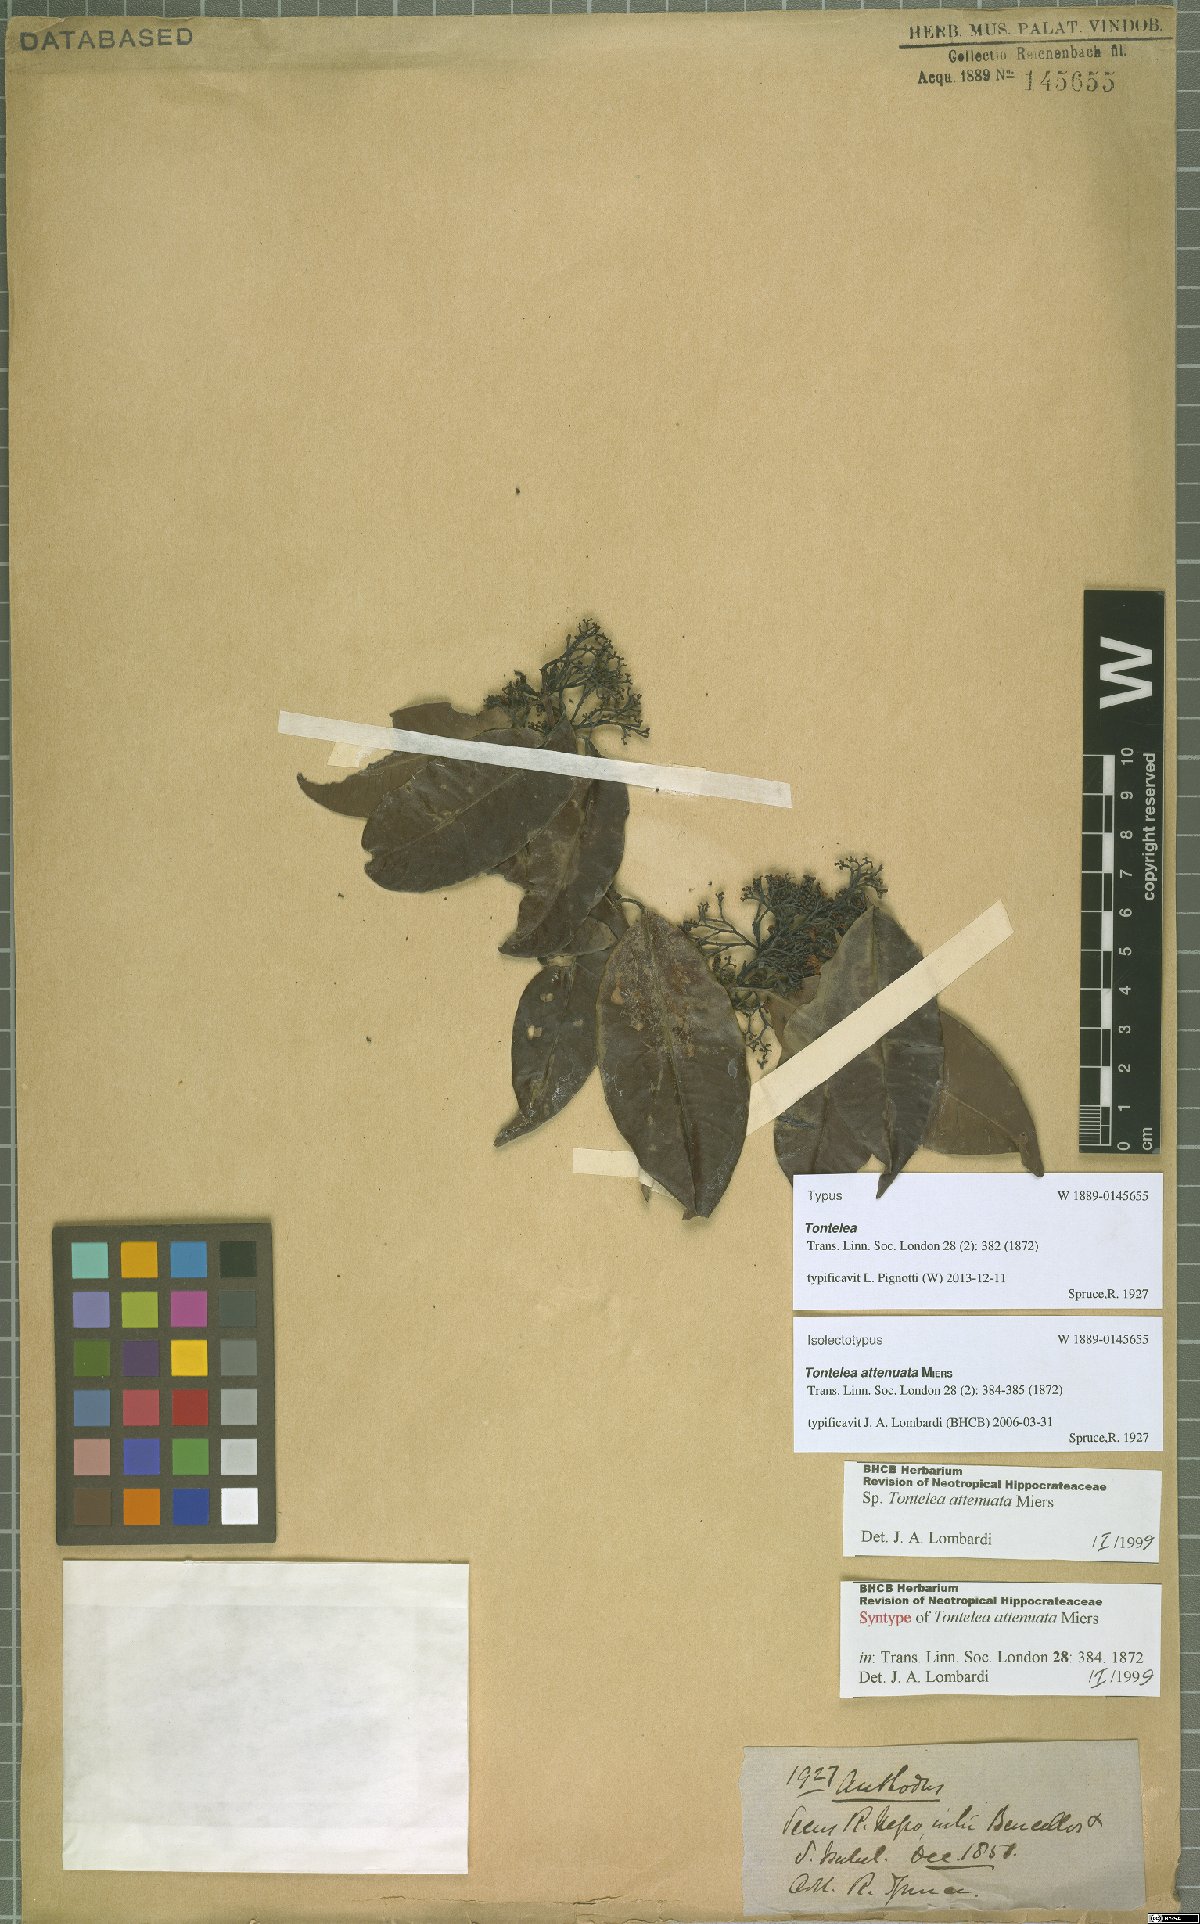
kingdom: Plantae
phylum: Tracheophyta
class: Magnoliopsida
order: Celastrales
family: Celastraceae
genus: Tontelea
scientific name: Tontelea attenuata
